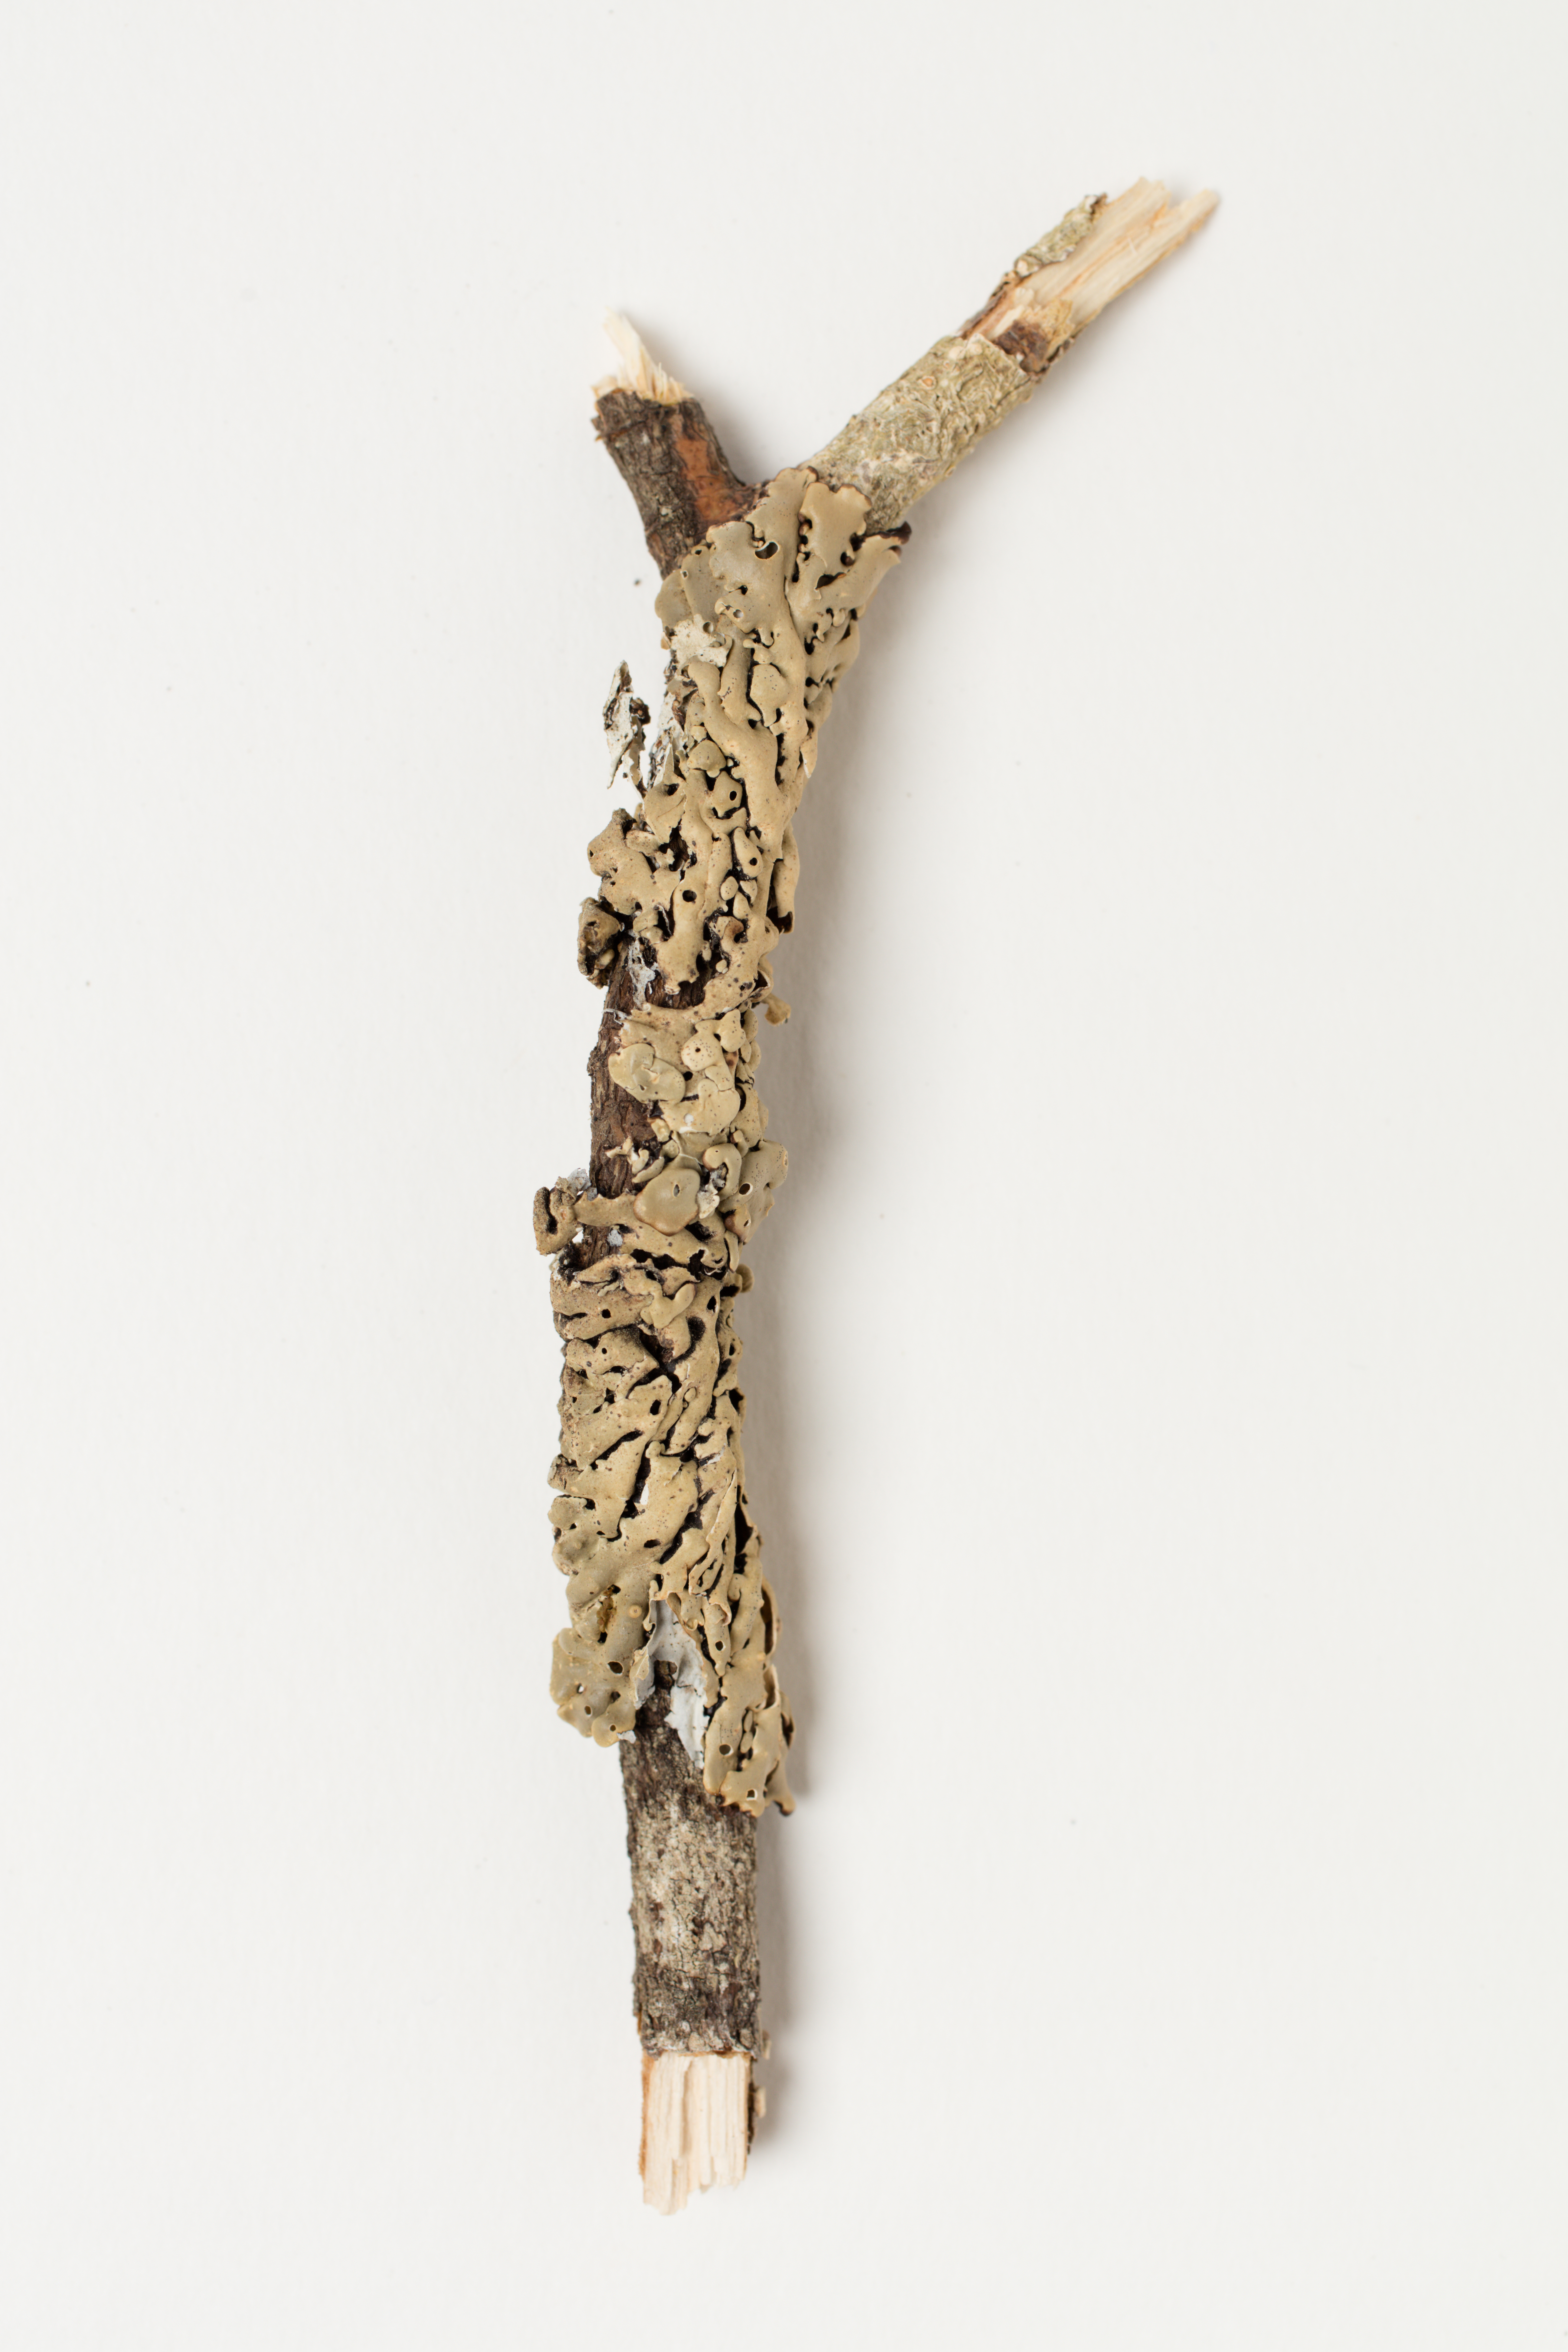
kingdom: Fungi
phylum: Ascomycota
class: Lecanoromycetes
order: Lecanorales
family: Parmeliaceae
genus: Menegazzia
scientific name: Menegazzia dielsii
